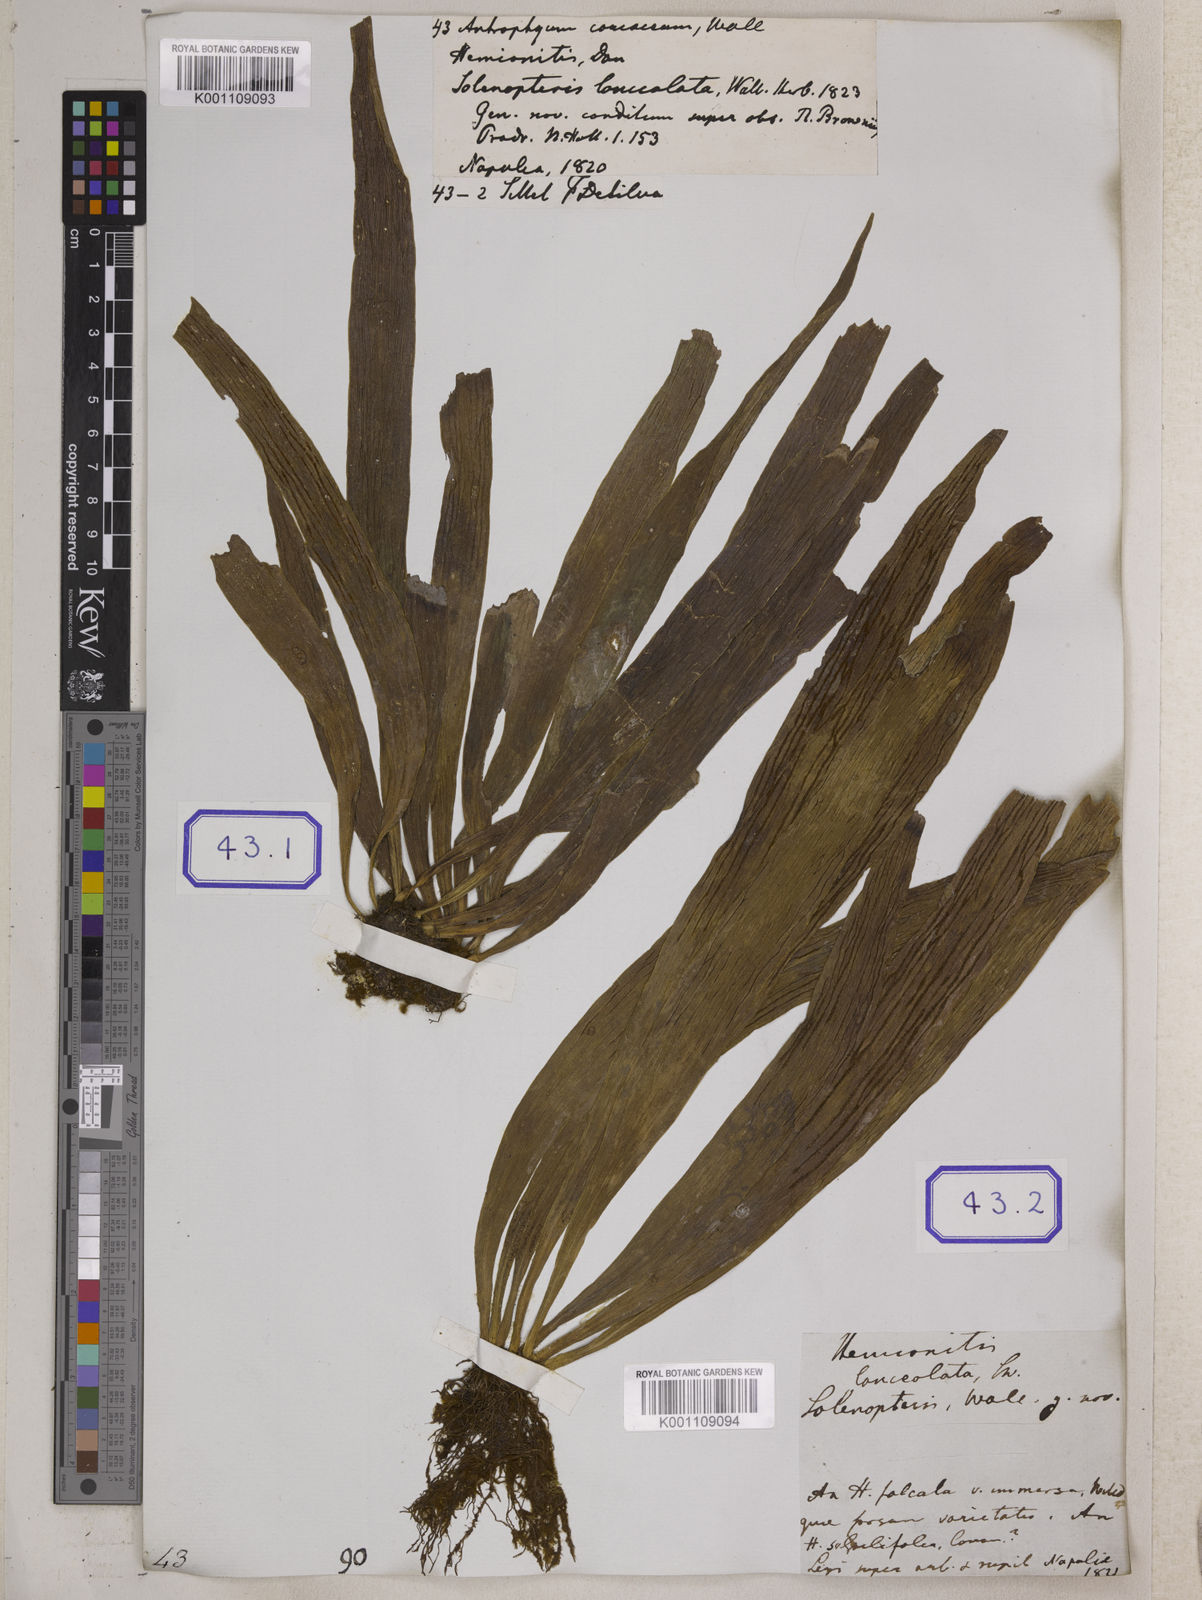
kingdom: Plantae
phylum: Tracheophyta
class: Polypodiopsida
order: Polypodiales
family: Pteridaceae
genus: Antrophyum
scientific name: Antrophyum reticulatum
